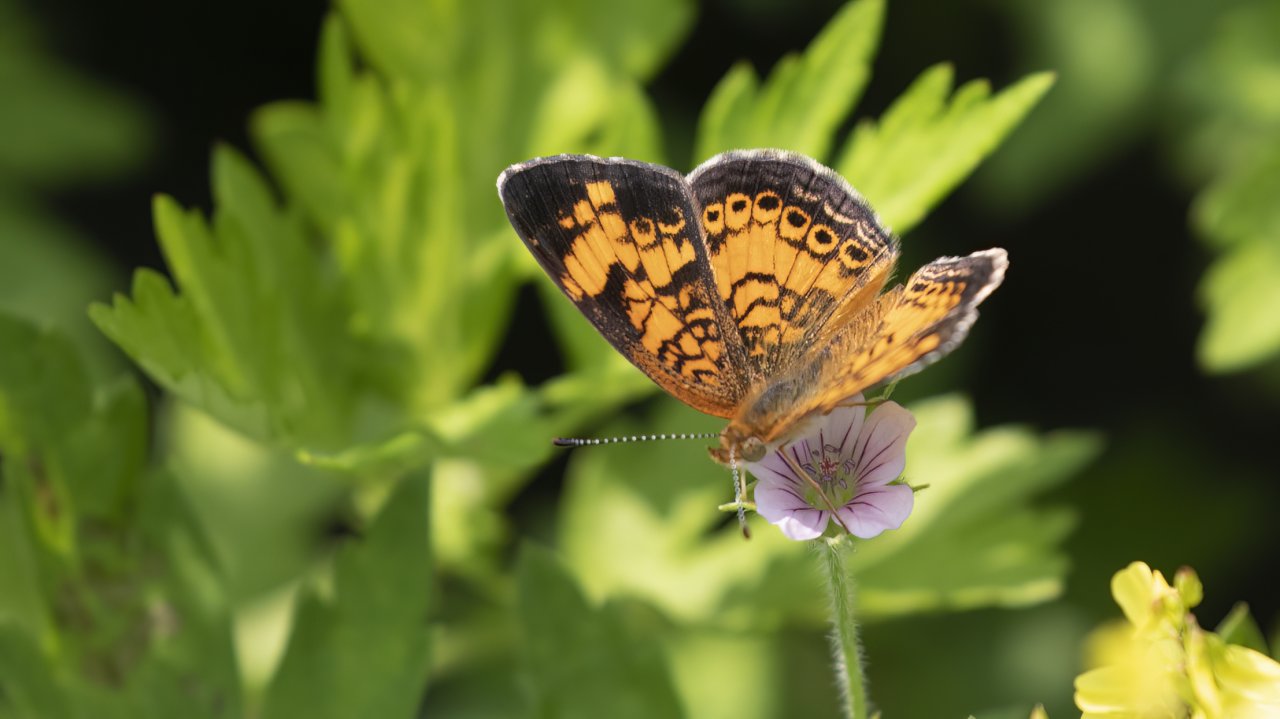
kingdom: Animalia
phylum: Arthropoda
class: Insecta
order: Lepidoptera
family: Nymphalidae
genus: Phyciodes
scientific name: Phyciodes tharos
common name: Northern Crescent
